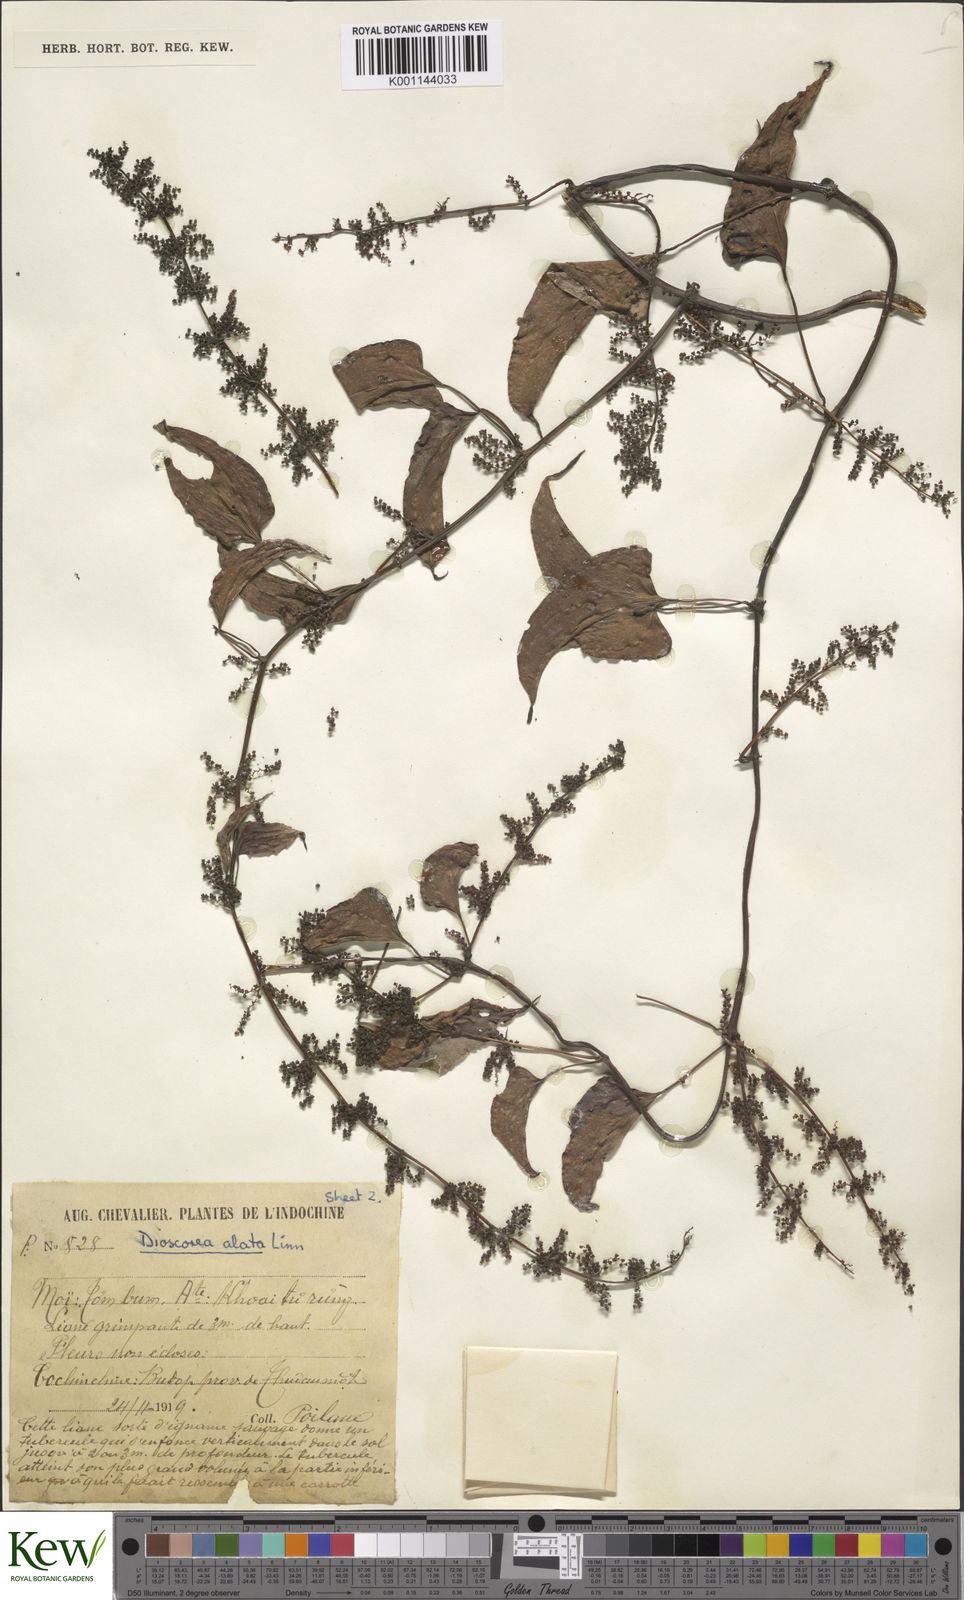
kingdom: Plantae
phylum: Tracheophyta
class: Liliopsida
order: Dioscoreales
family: Dioscoreaceae
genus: Dioscorea
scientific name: Dioscorea alata
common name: Water yam
